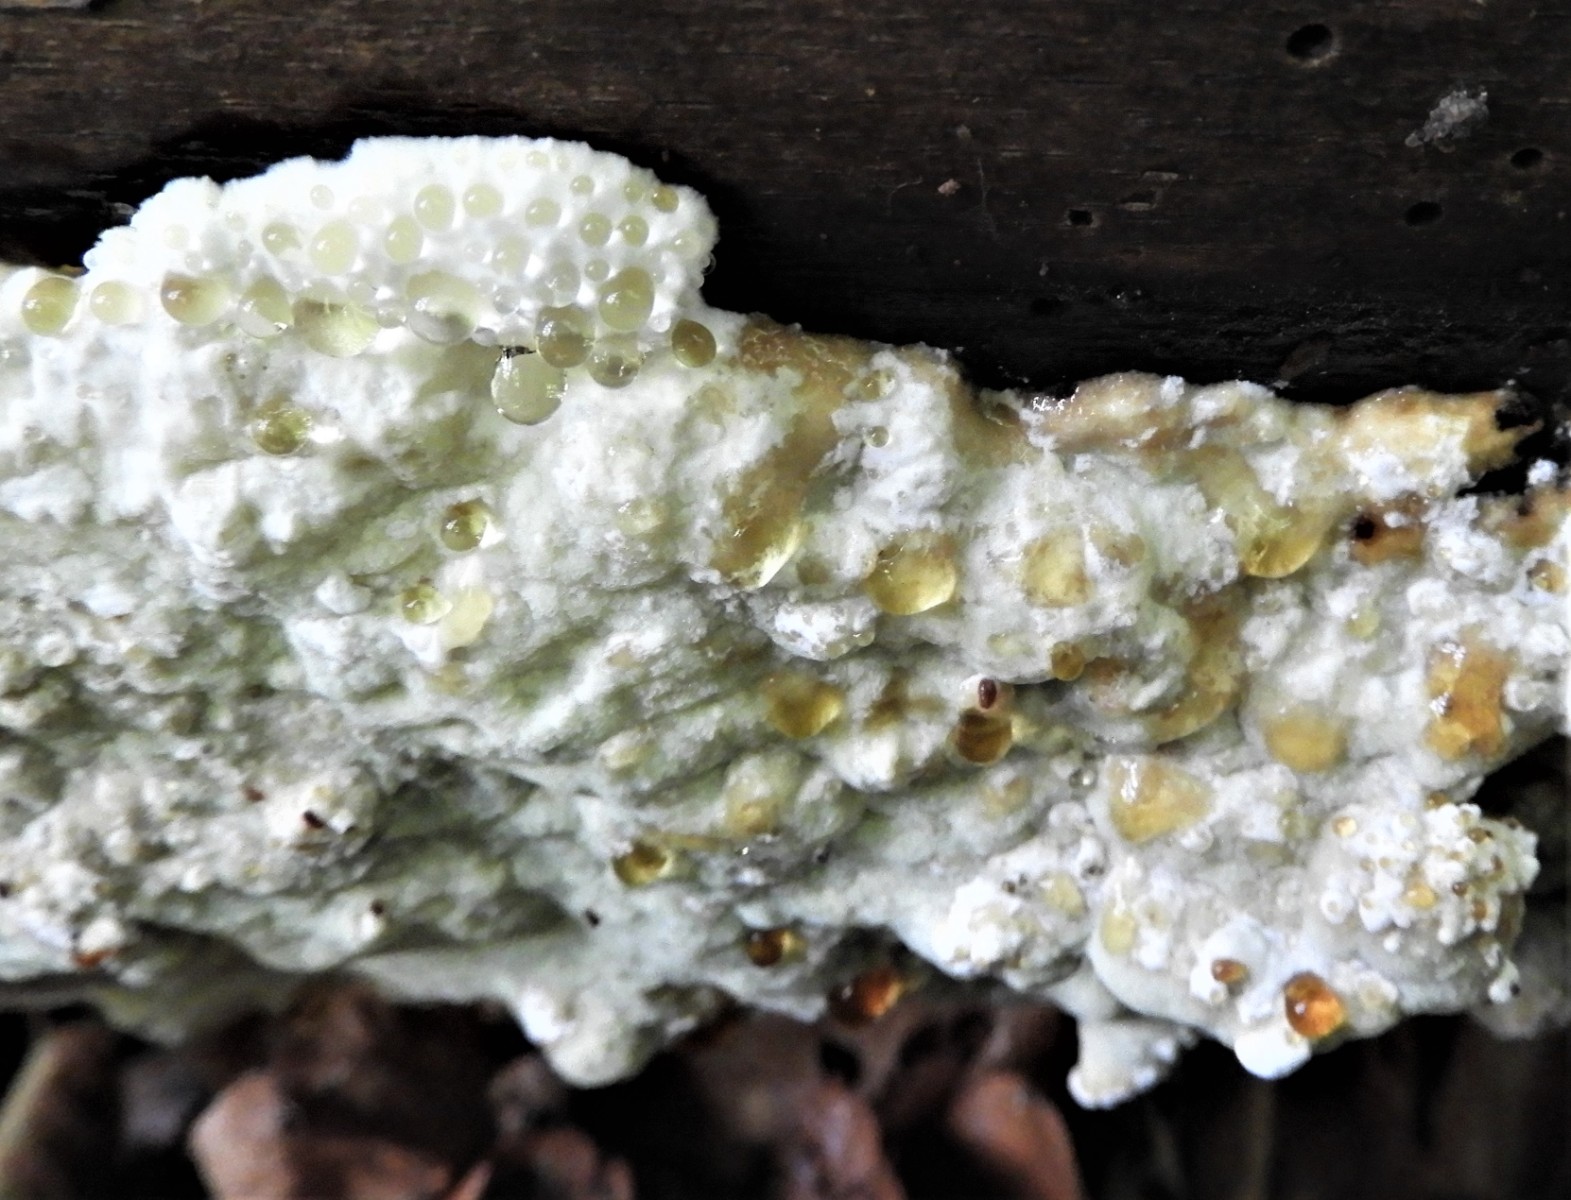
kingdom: Fungi
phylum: Basidiomycota
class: Agaricomycetes
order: Polyporales
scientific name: Polyporales
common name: poresvampordenen
